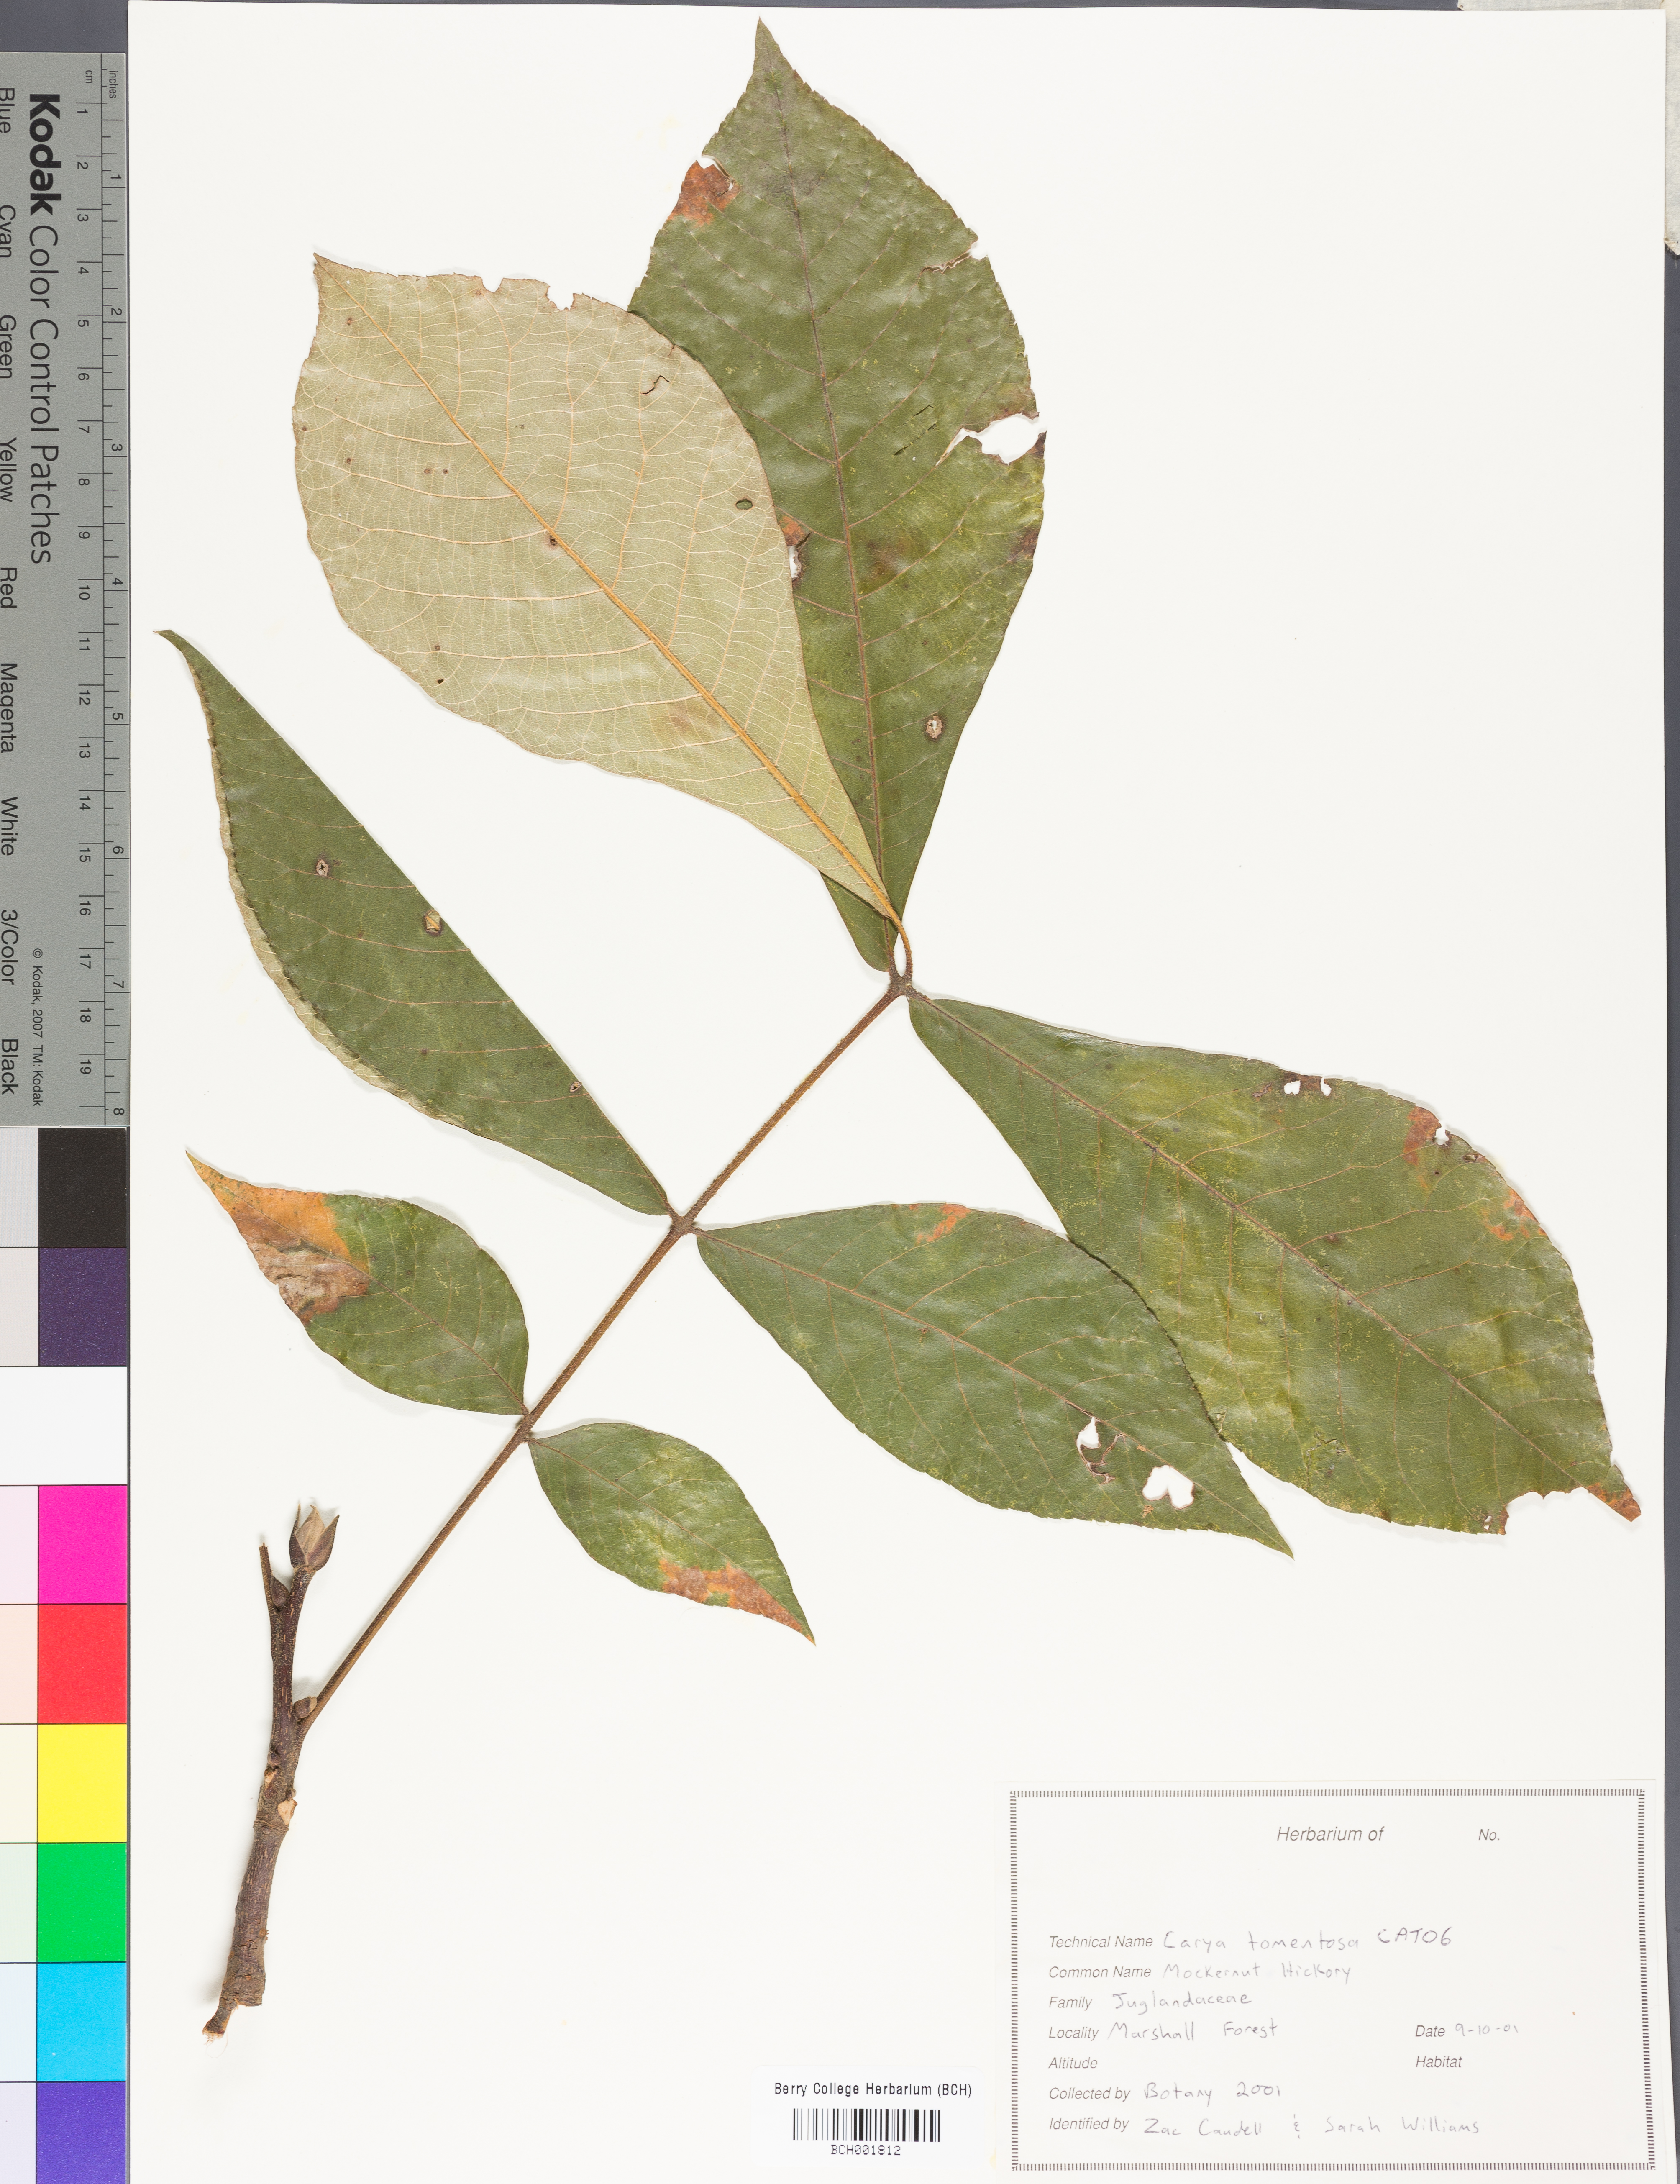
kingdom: Plantae
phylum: Tracheophyta
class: Magnoliopsida
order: Fagales
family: Juglandaceae
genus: Carya
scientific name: Carya alba
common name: Mockernut hickory
